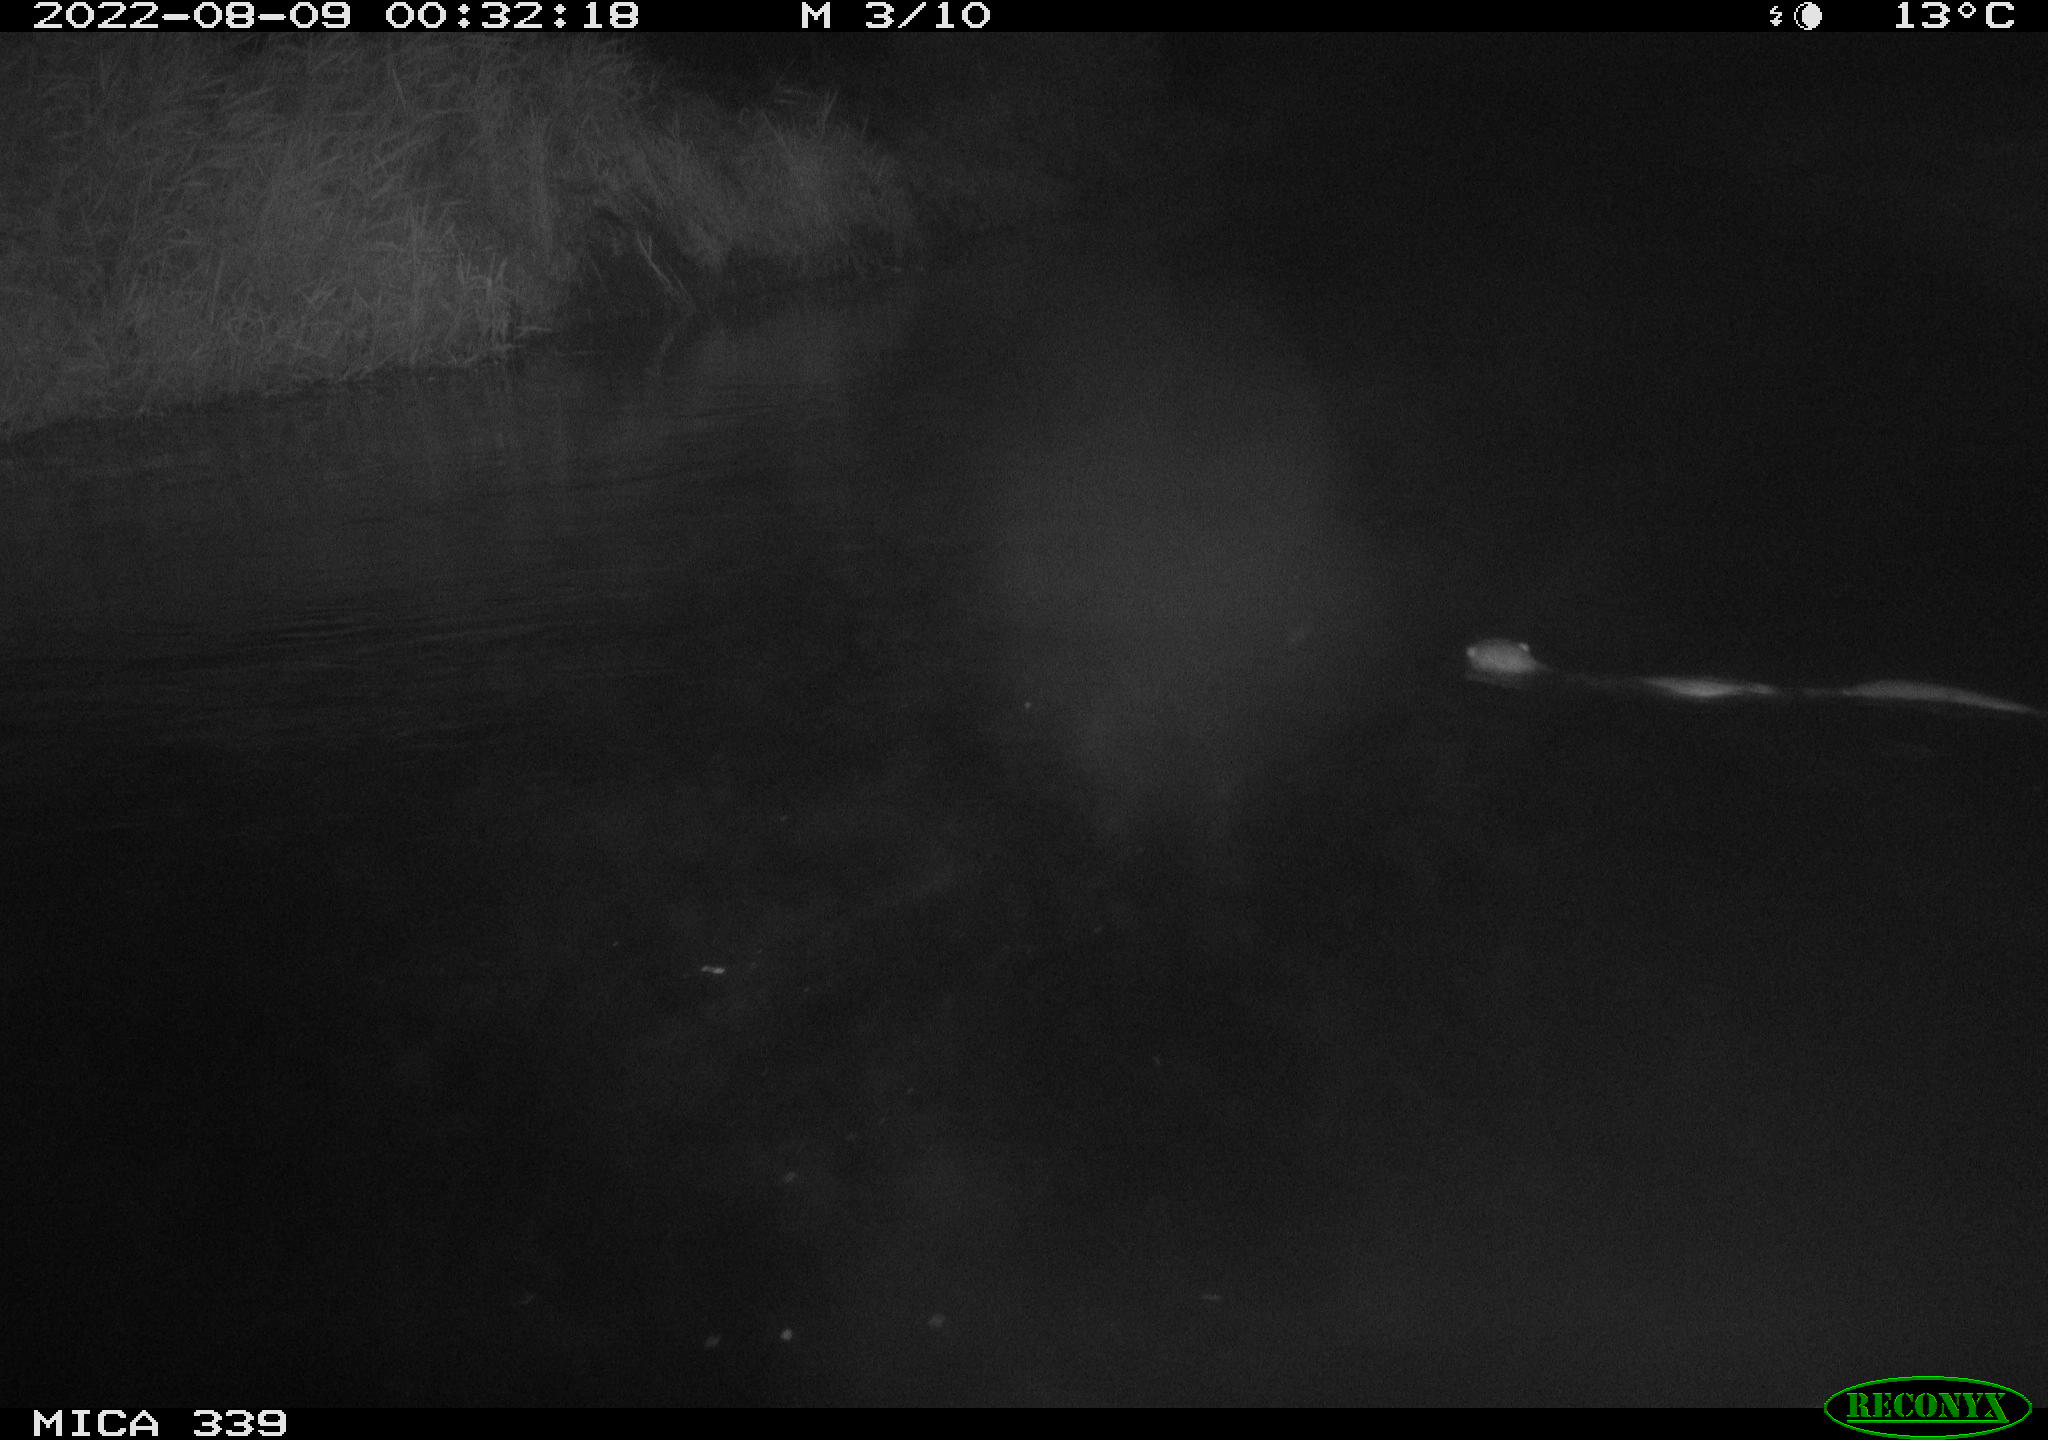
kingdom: Animalia
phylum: Chordata
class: Mammalia
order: Carnivora
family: Mustelidae
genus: Lutra
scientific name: Lutra lutra
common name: European otter
